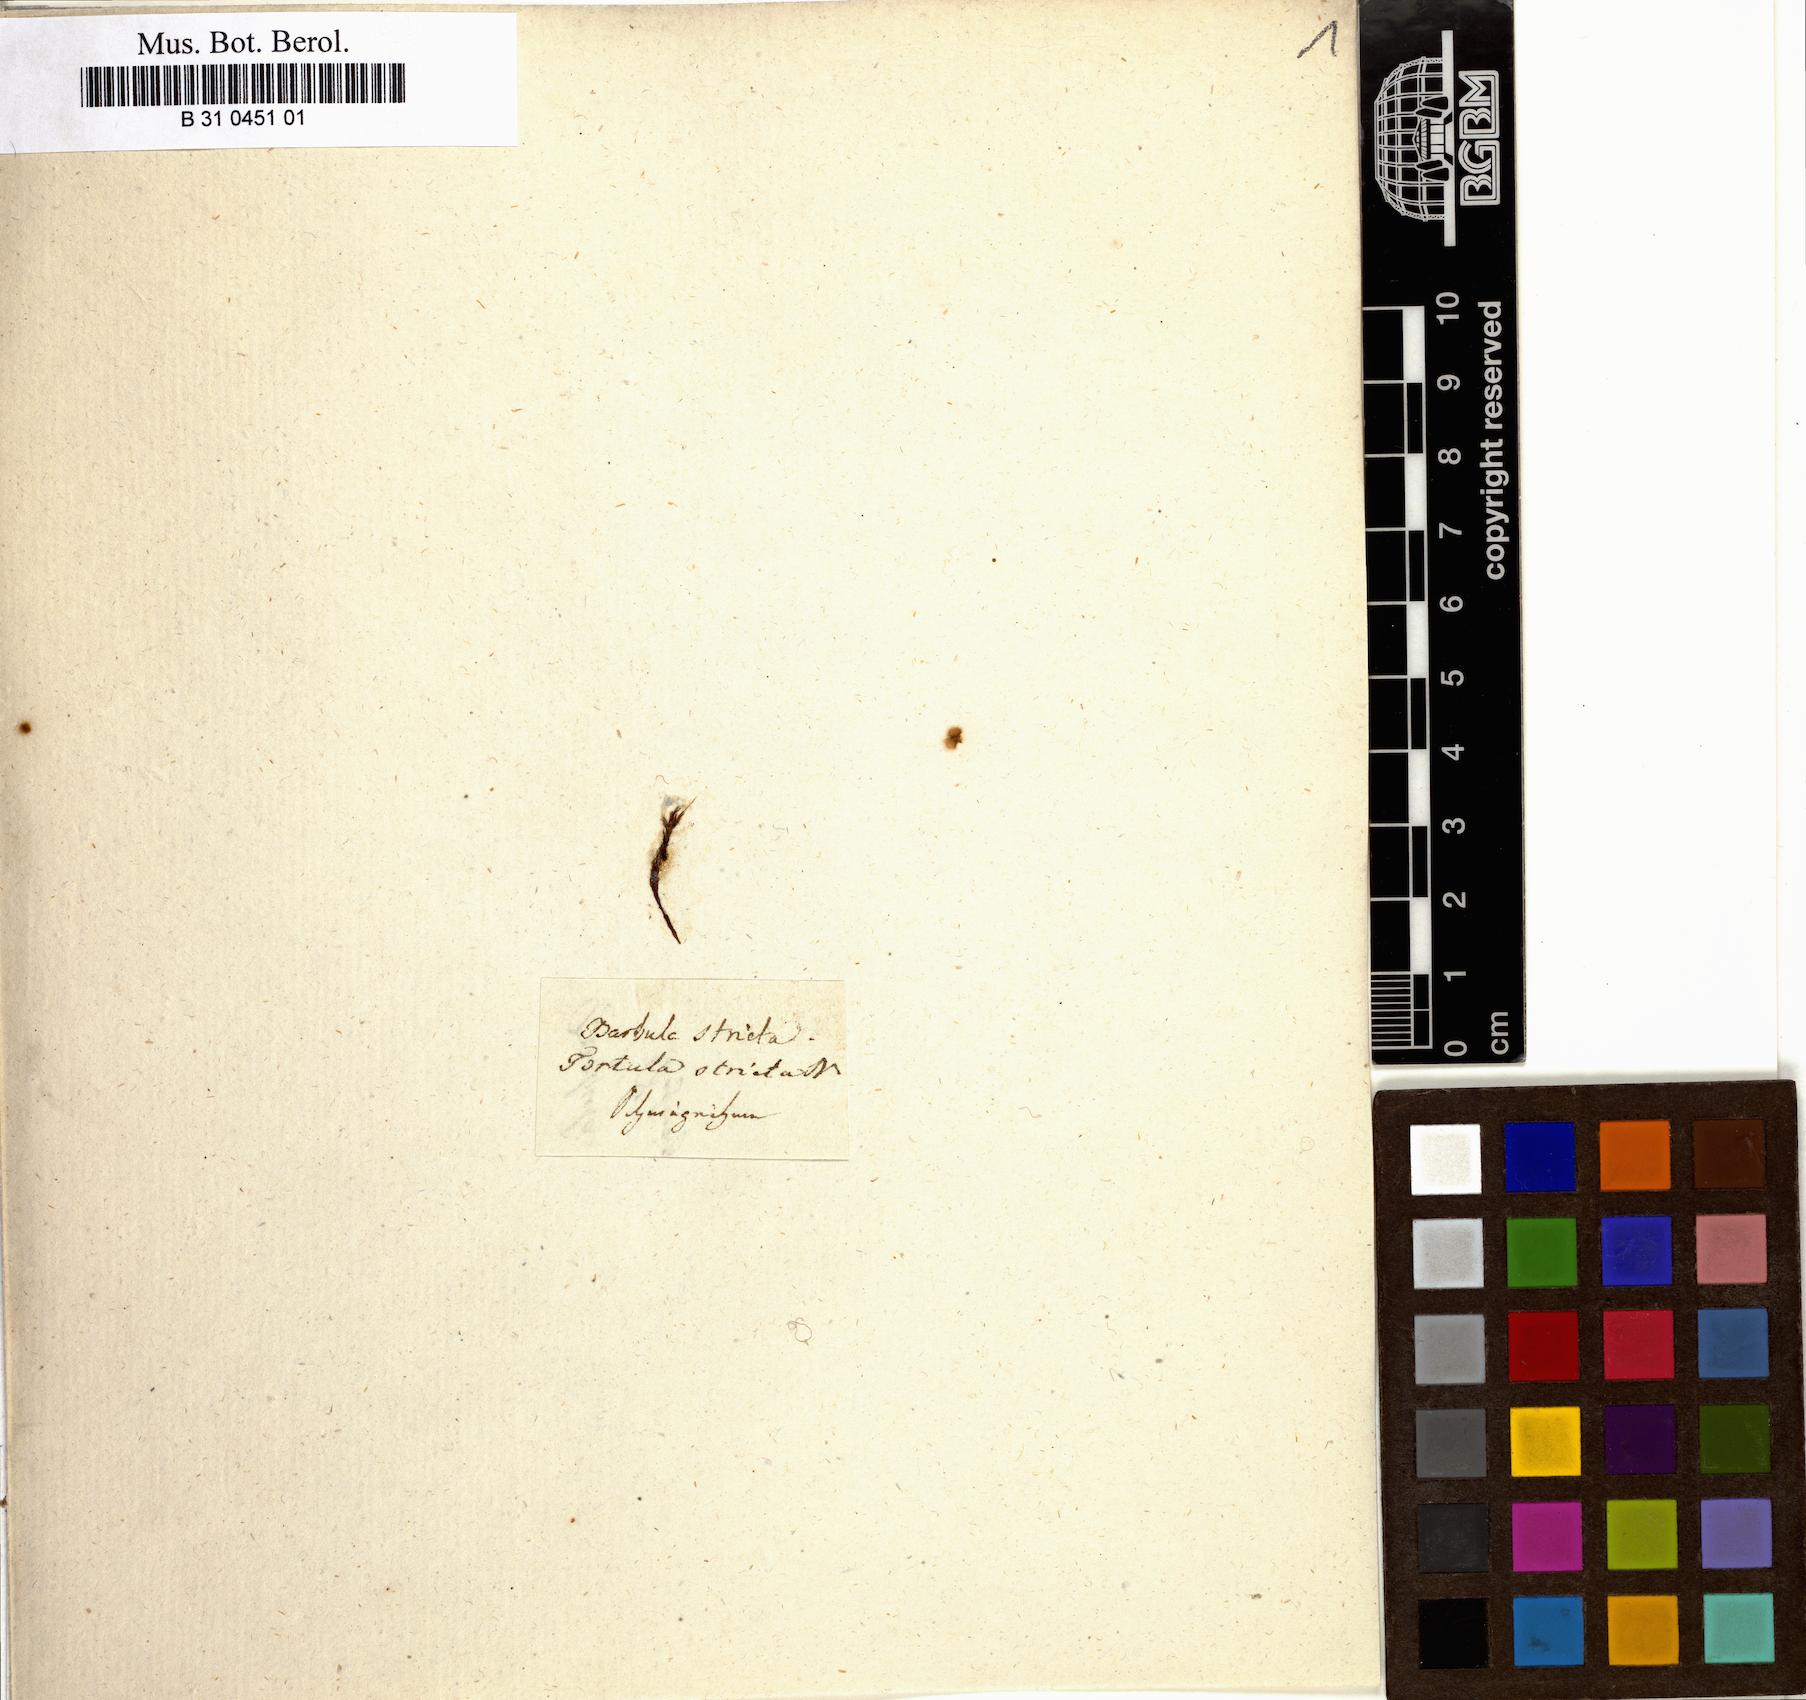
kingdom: Plantae
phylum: Bryophyta
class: Bryopsida
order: Pottiales
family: Pottiaceae
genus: Barbula
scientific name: Barbula unguiculata
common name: Prickly beard moss
